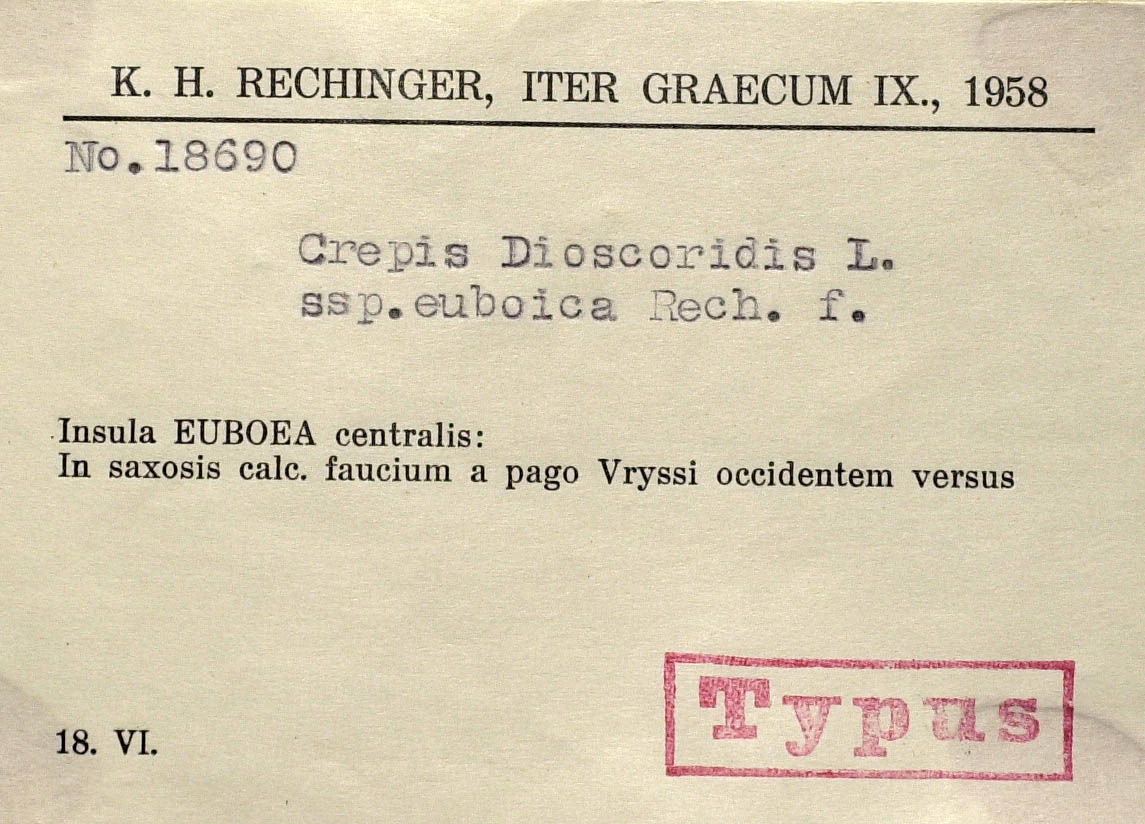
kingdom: Plantae
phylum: Tracheophyta
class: Magnoliopsida
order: Asterales
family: Asteraceae
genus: Crepis
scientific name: Crepis dioscoridis
